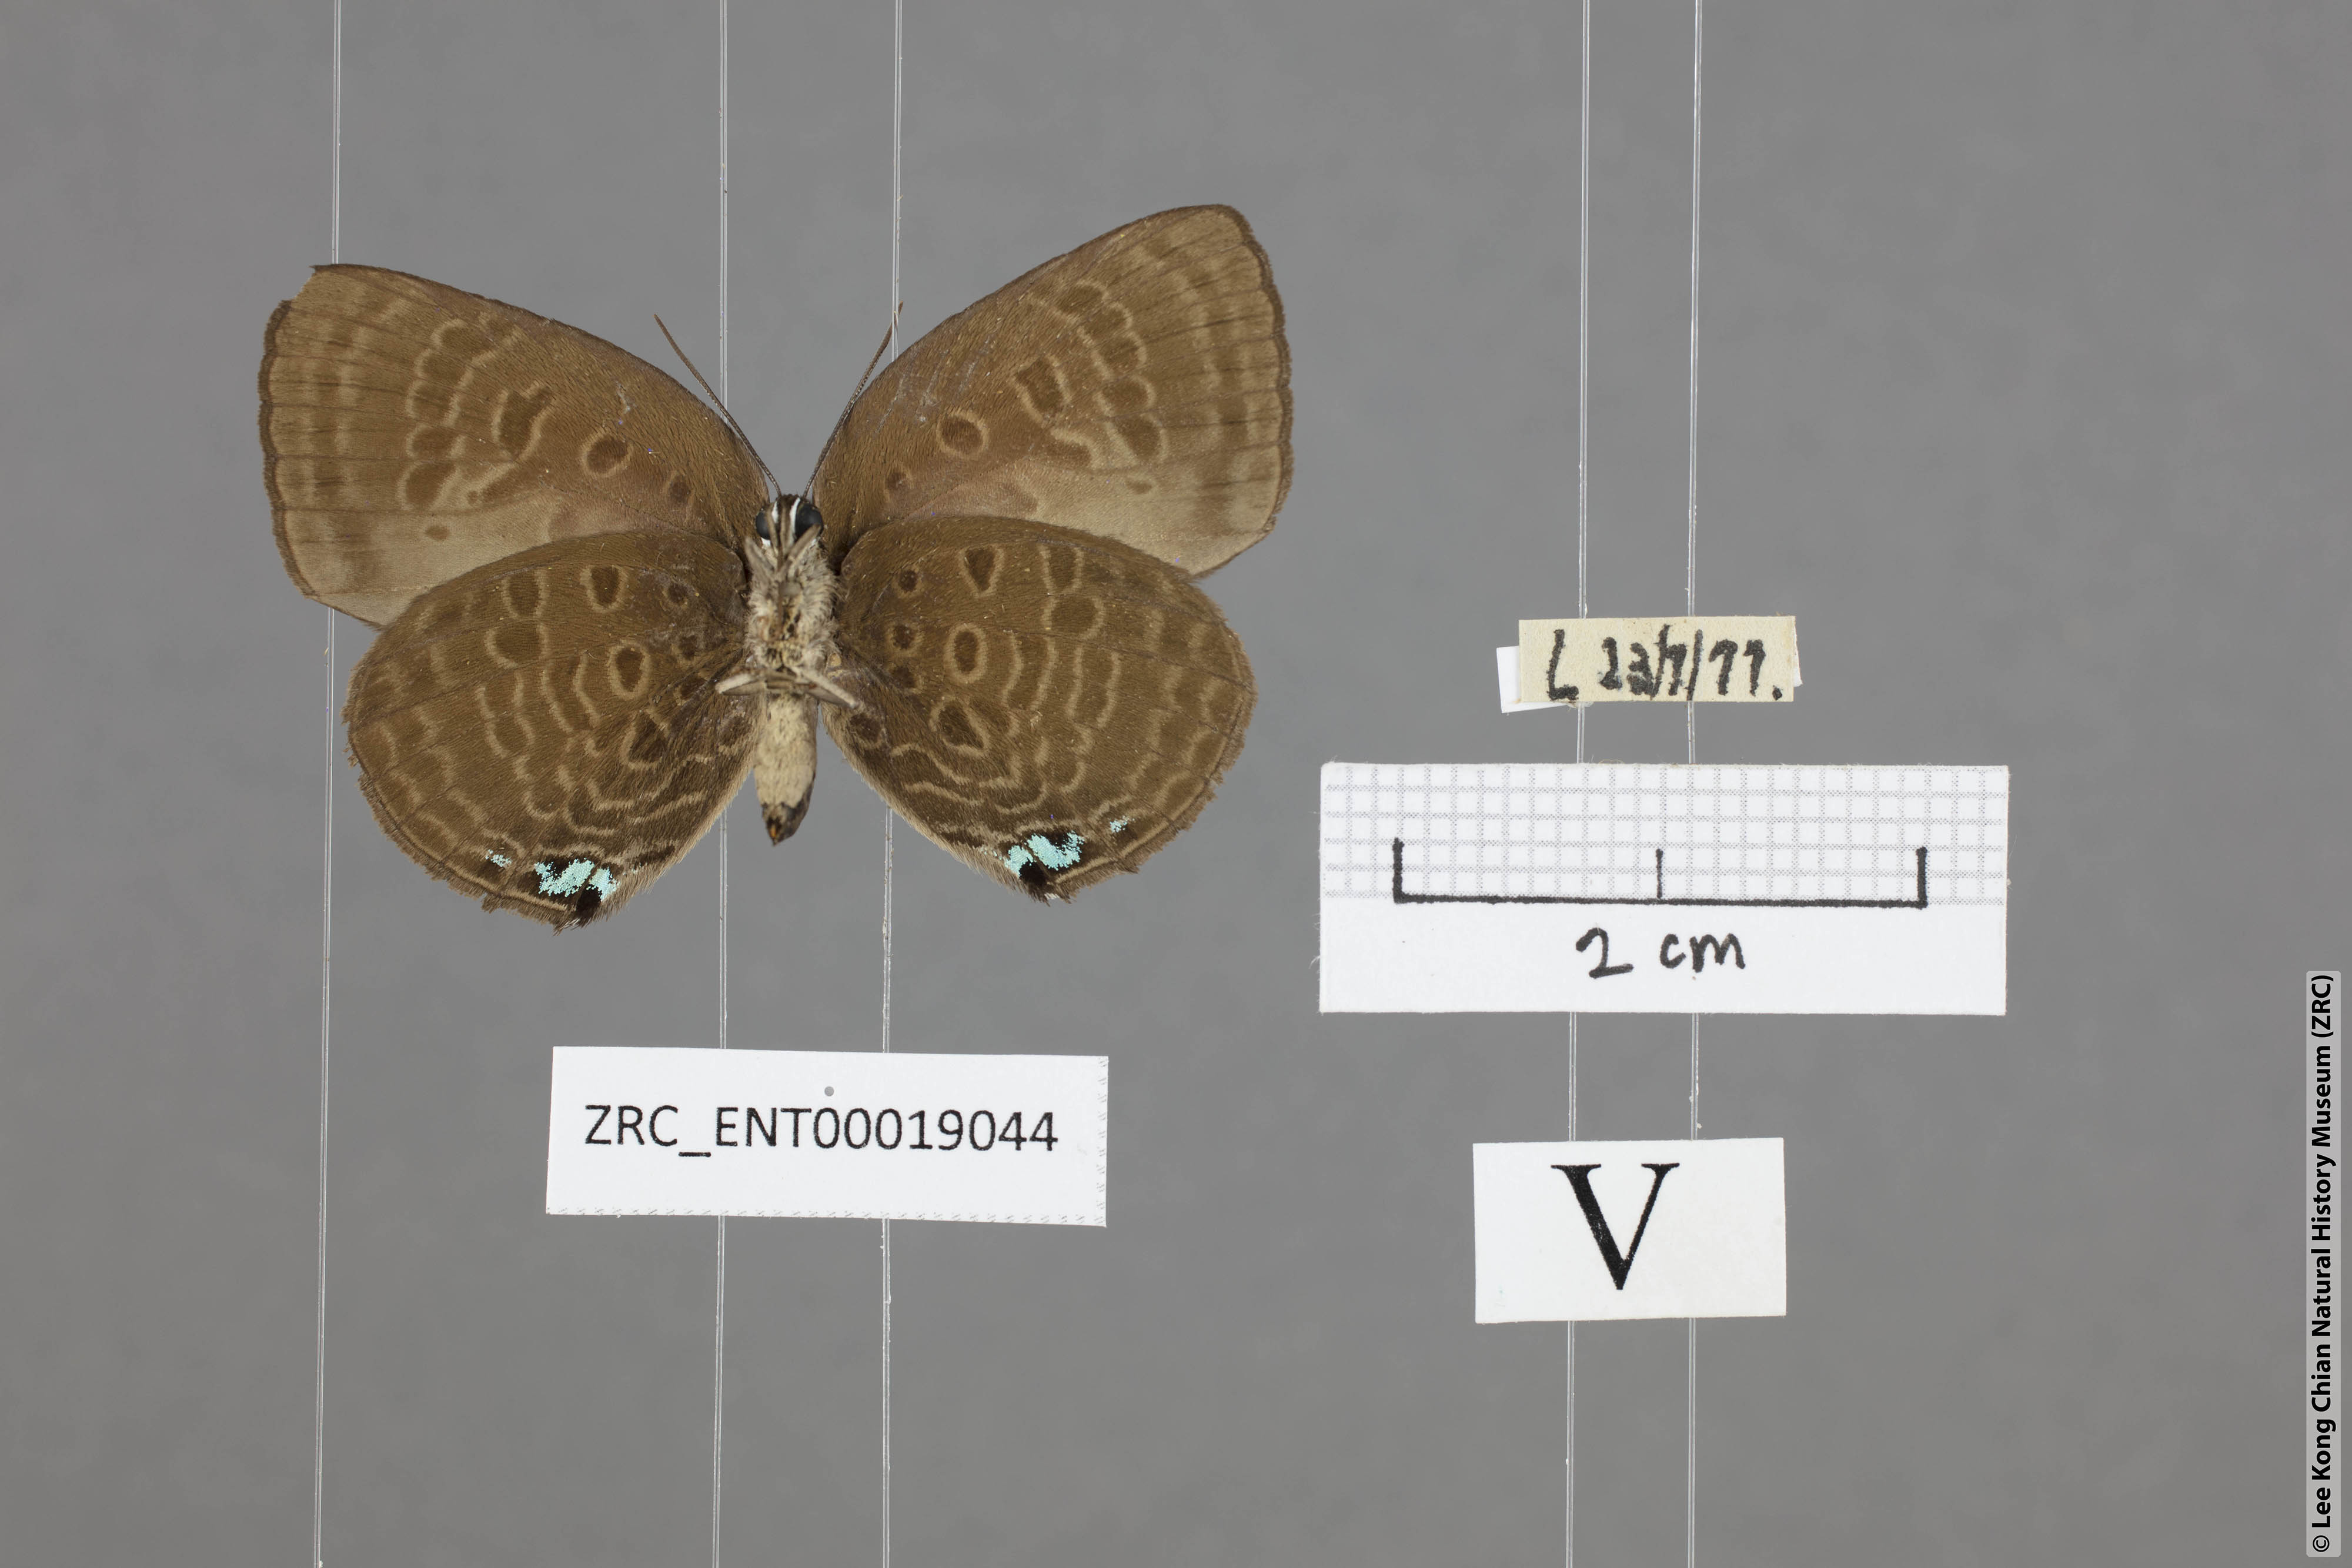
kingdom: Animalia
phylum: Arthropoda
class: Insecta
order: Lepidoptera
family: Lycaenidae
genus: Arhopala
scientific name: Arhopala agesilaus
